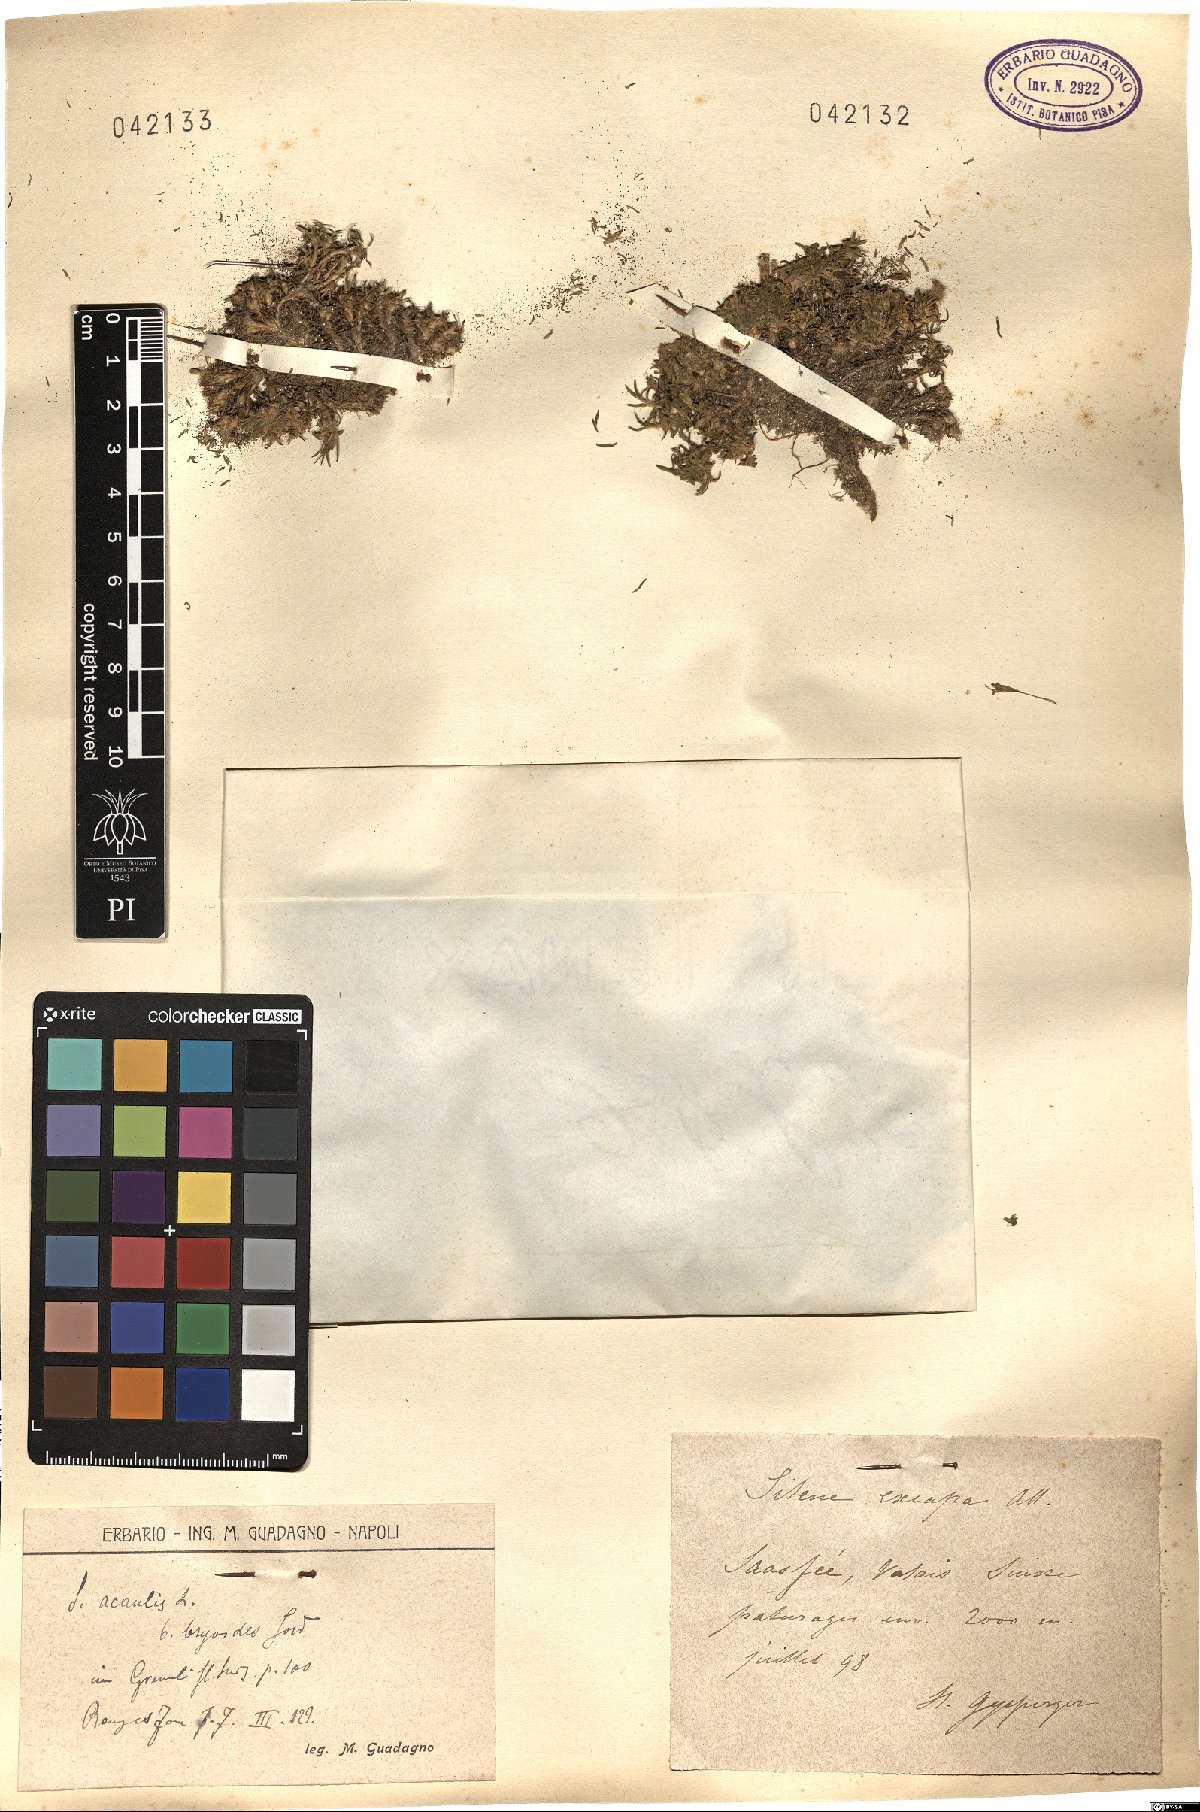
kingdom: Plantae
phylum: Tracheophyta
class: Magnoliopsida
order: Caryophyllales
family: Caryophyllaceae
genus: Silene
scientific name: Silene acaulis
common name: Moss campion
